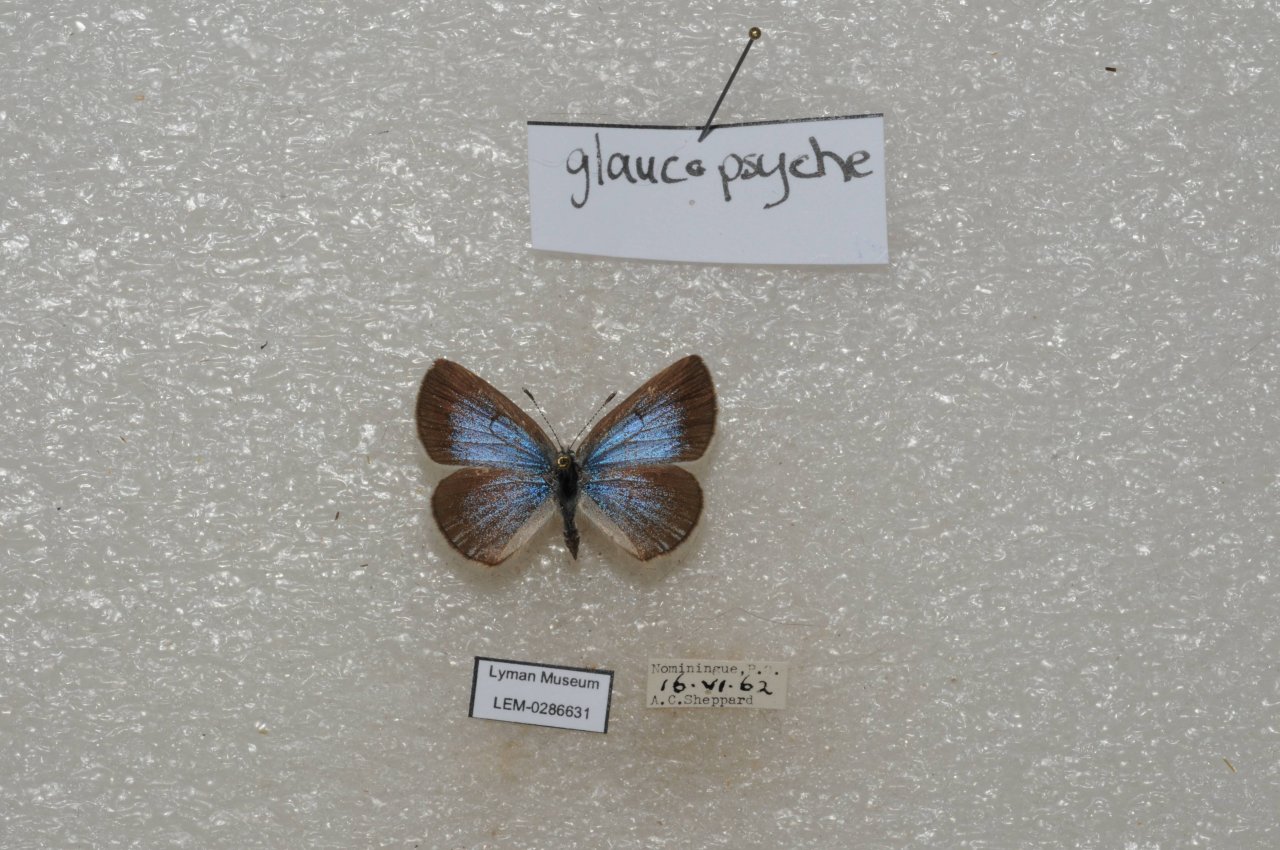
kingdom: Animalia
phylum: Arthropoda
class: Insecta
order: Lepidoptera
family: Lycaenidae
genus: Glaucopsyche
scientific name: Glaucopsyche lygdamus
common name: Silvery Blue
